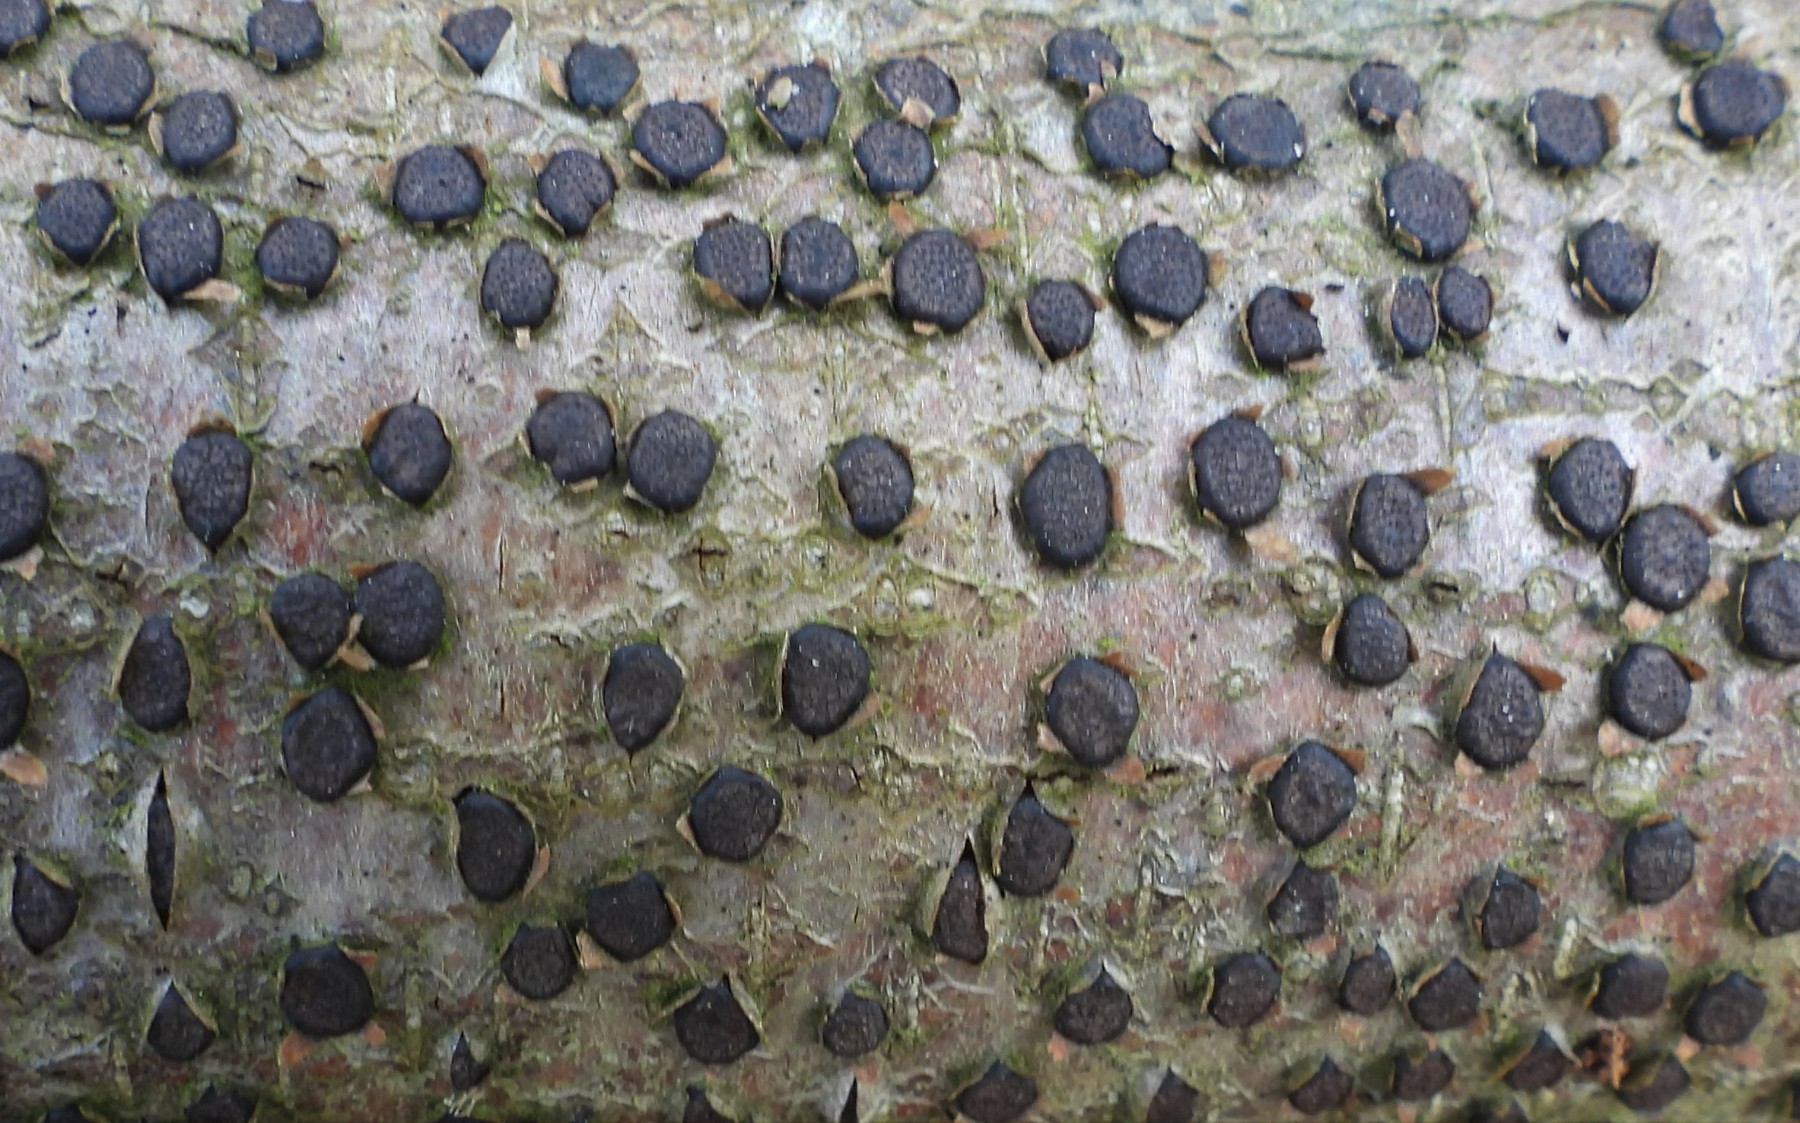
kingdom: Fungi
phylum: Ascomycota
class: Sordariomycetes
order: Xylariales
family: Diatrypaceae
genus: Diatrype
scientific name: Diatrype disciformis
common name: kant-kulskorpe
